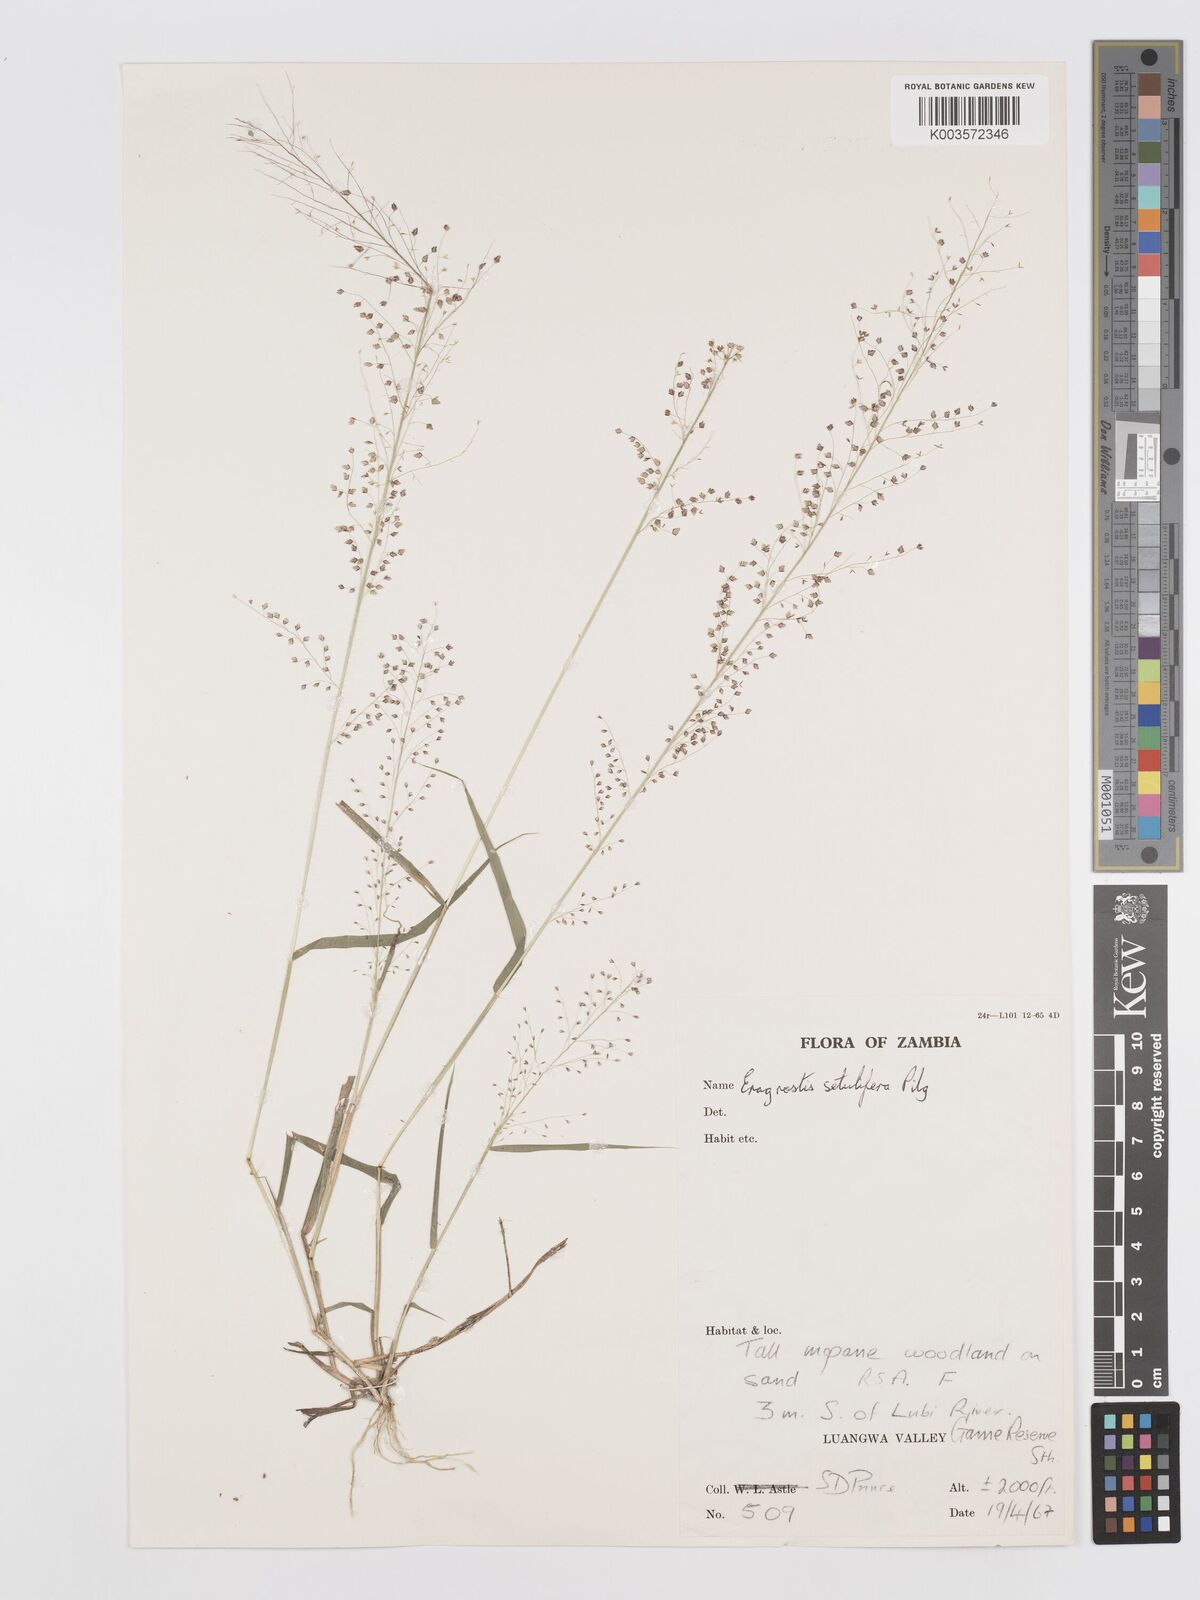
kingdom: Plantae
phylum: Tracheophyta
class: Liliopsida
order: Poales
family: Poaceae
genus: Eragrostis
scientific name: Eragrostis setulifera
